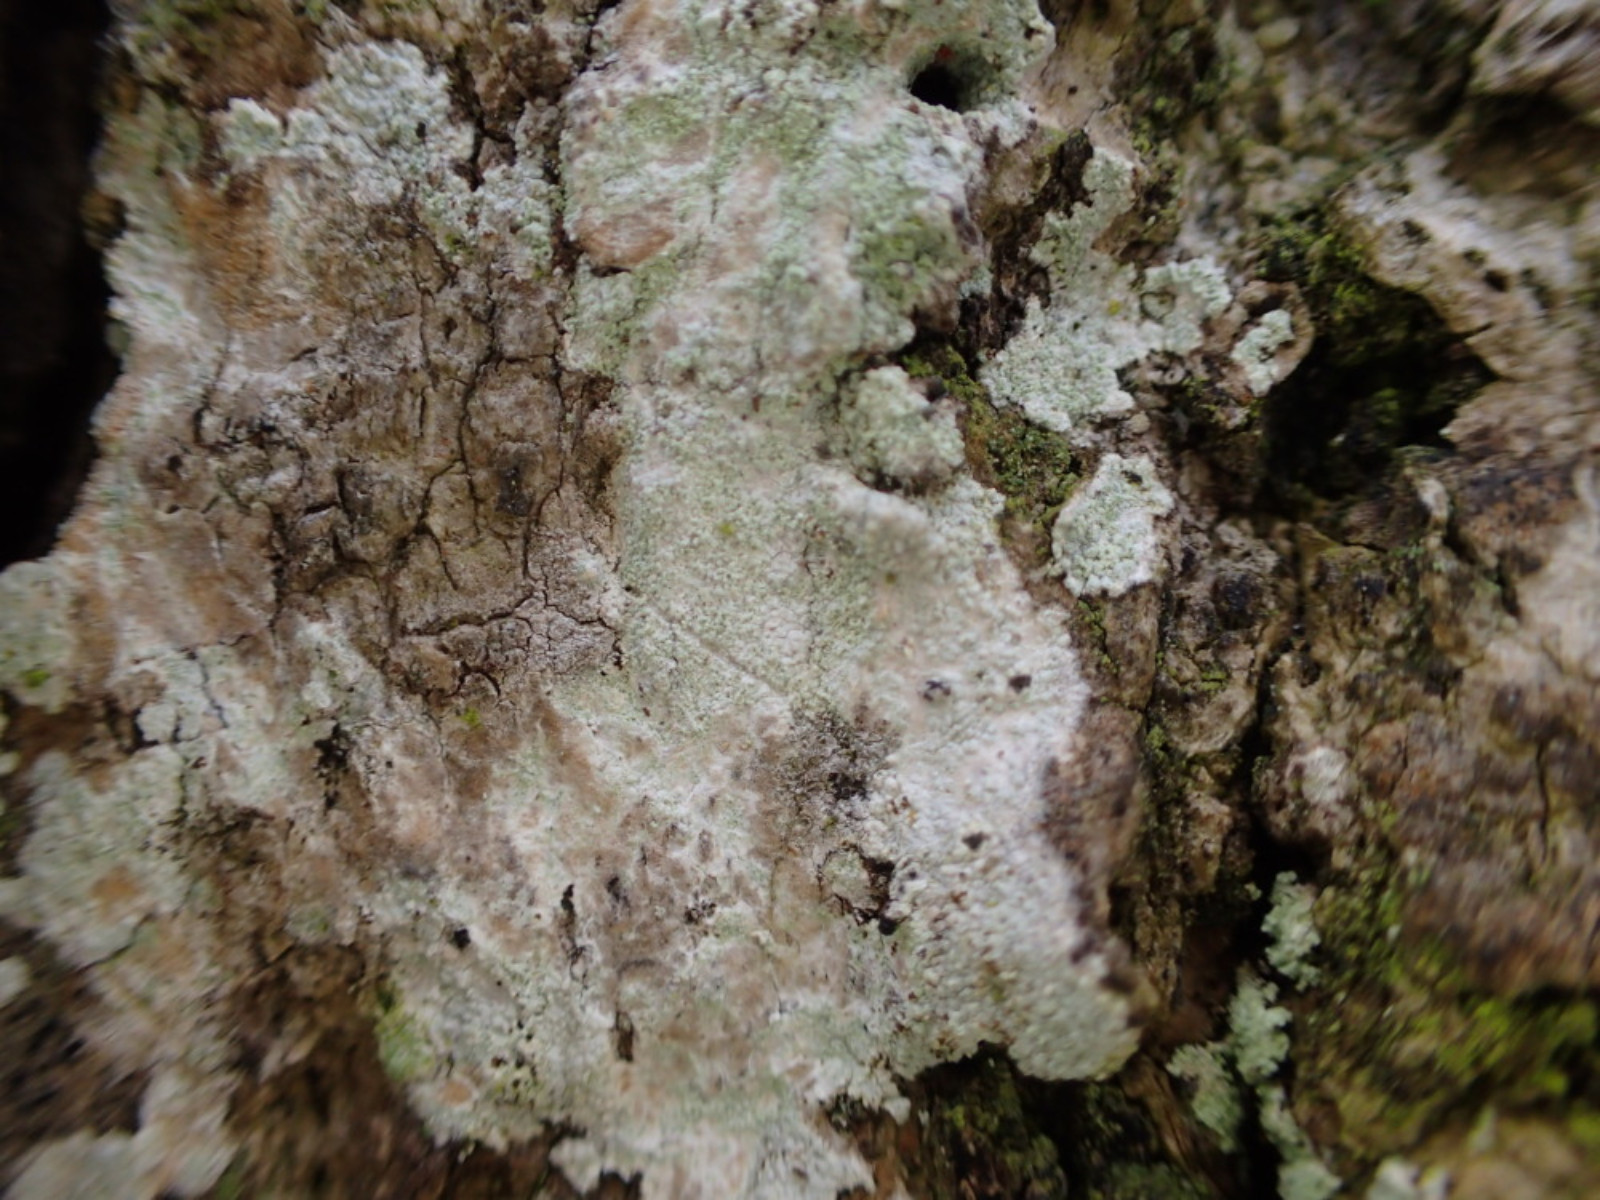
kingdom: Fungi
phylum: Ascomycota
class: Lecanoromycetes
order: Ostropales
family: Phlyctidaceae
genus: Phlyctis
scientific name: Phlyctis argena
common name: almindelig sølvlav
